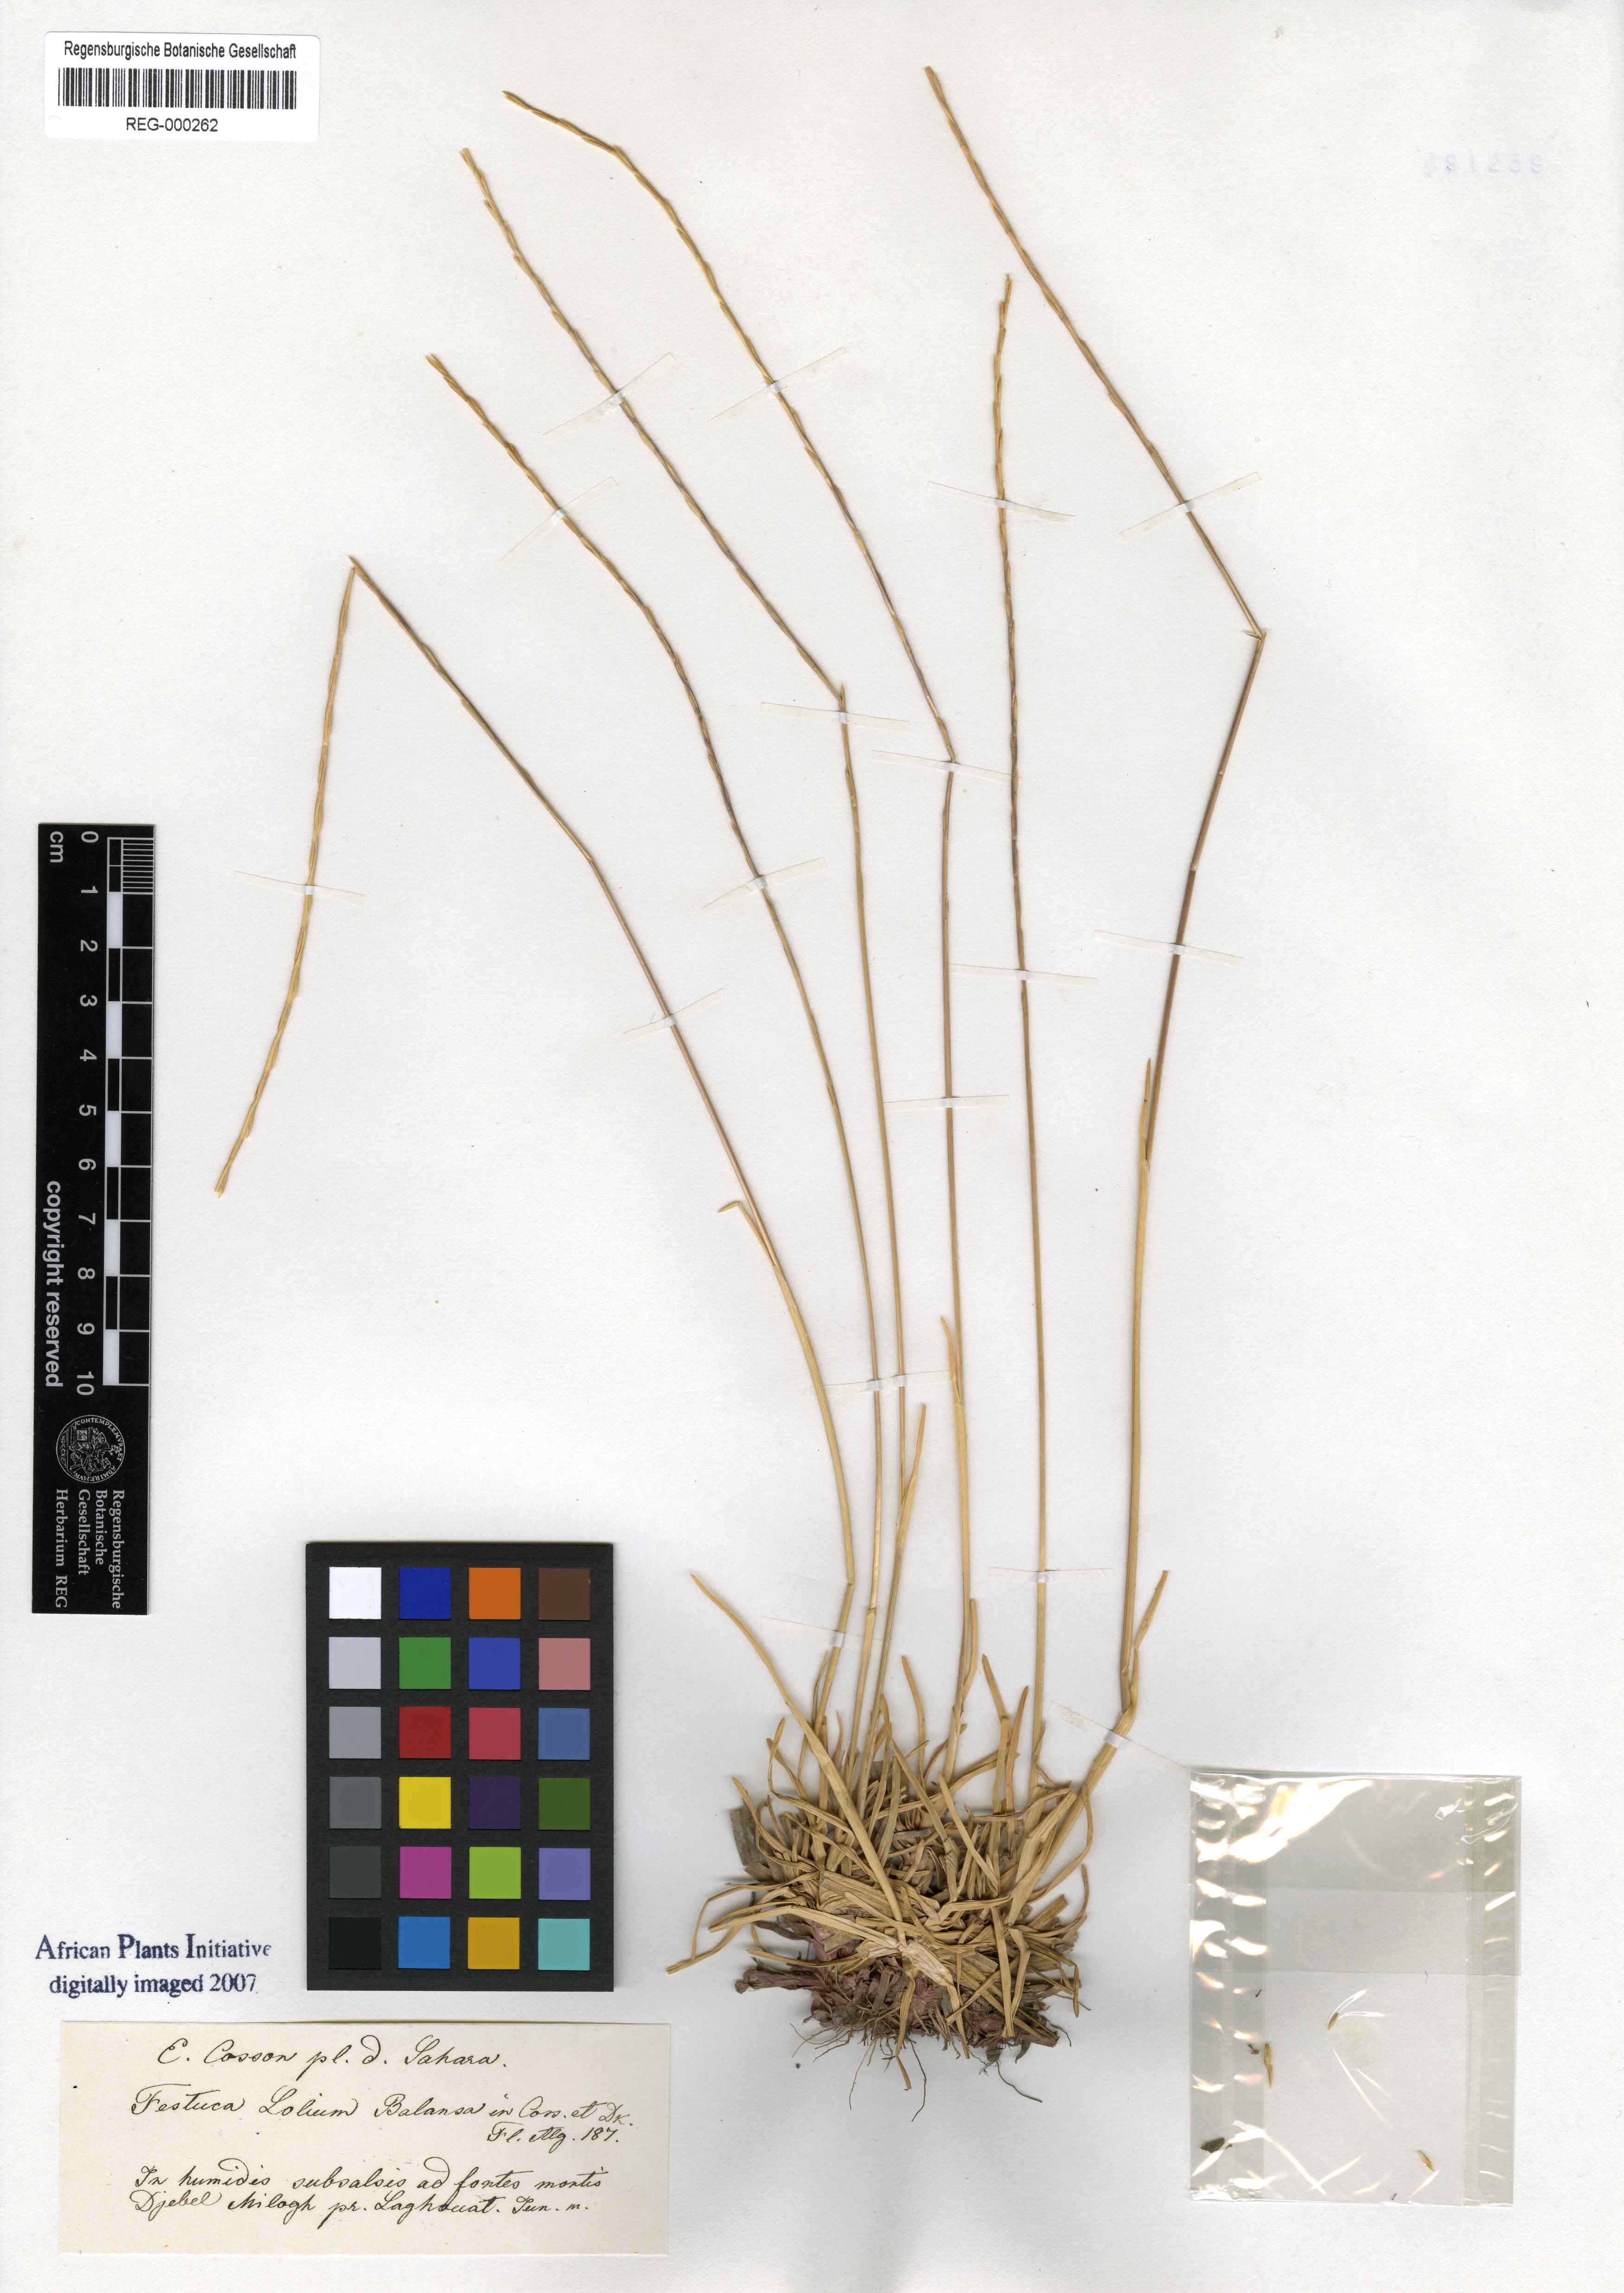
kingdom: Plantae
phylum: Tracheophyta
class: Liliopsida
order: Poales
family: Poaceae
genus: Agropyropsis
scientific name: Agropyropsis lolium
